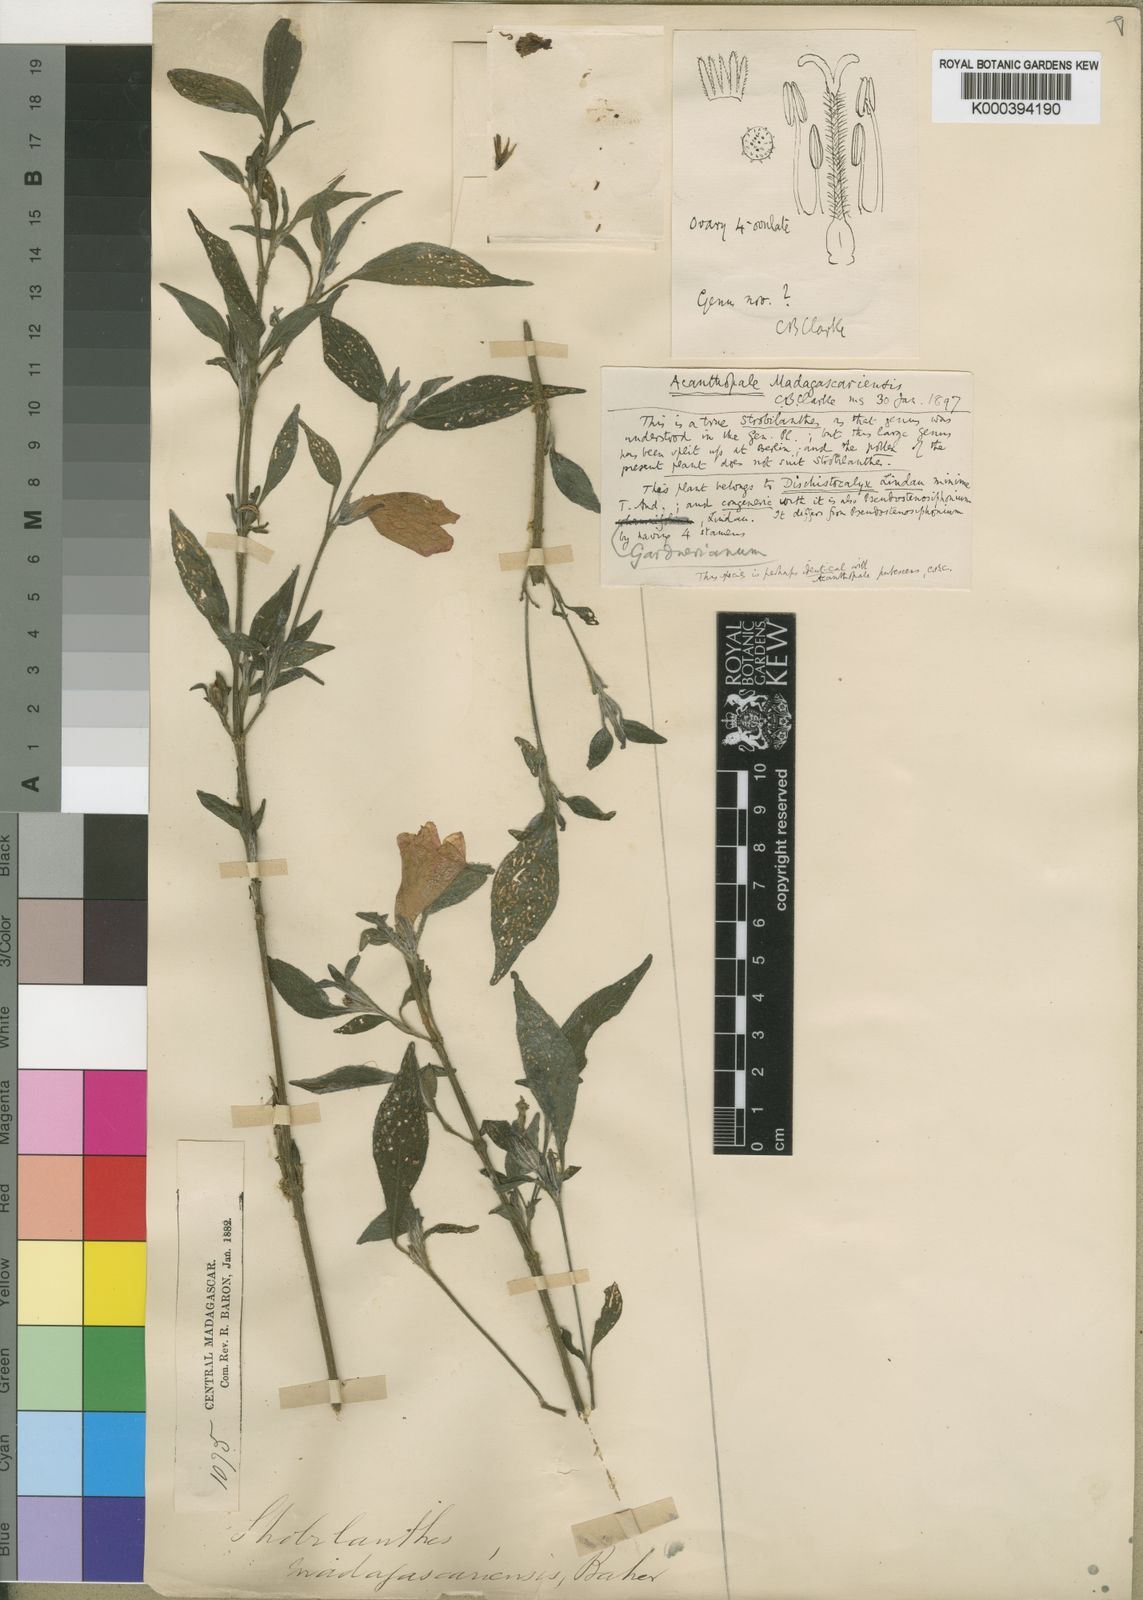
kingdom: Plantae
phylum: Tracheophyta
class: Magnoliopsida
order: Lamiales
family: Acanthaceae
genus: Acanthopale
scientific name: Acanthopale
